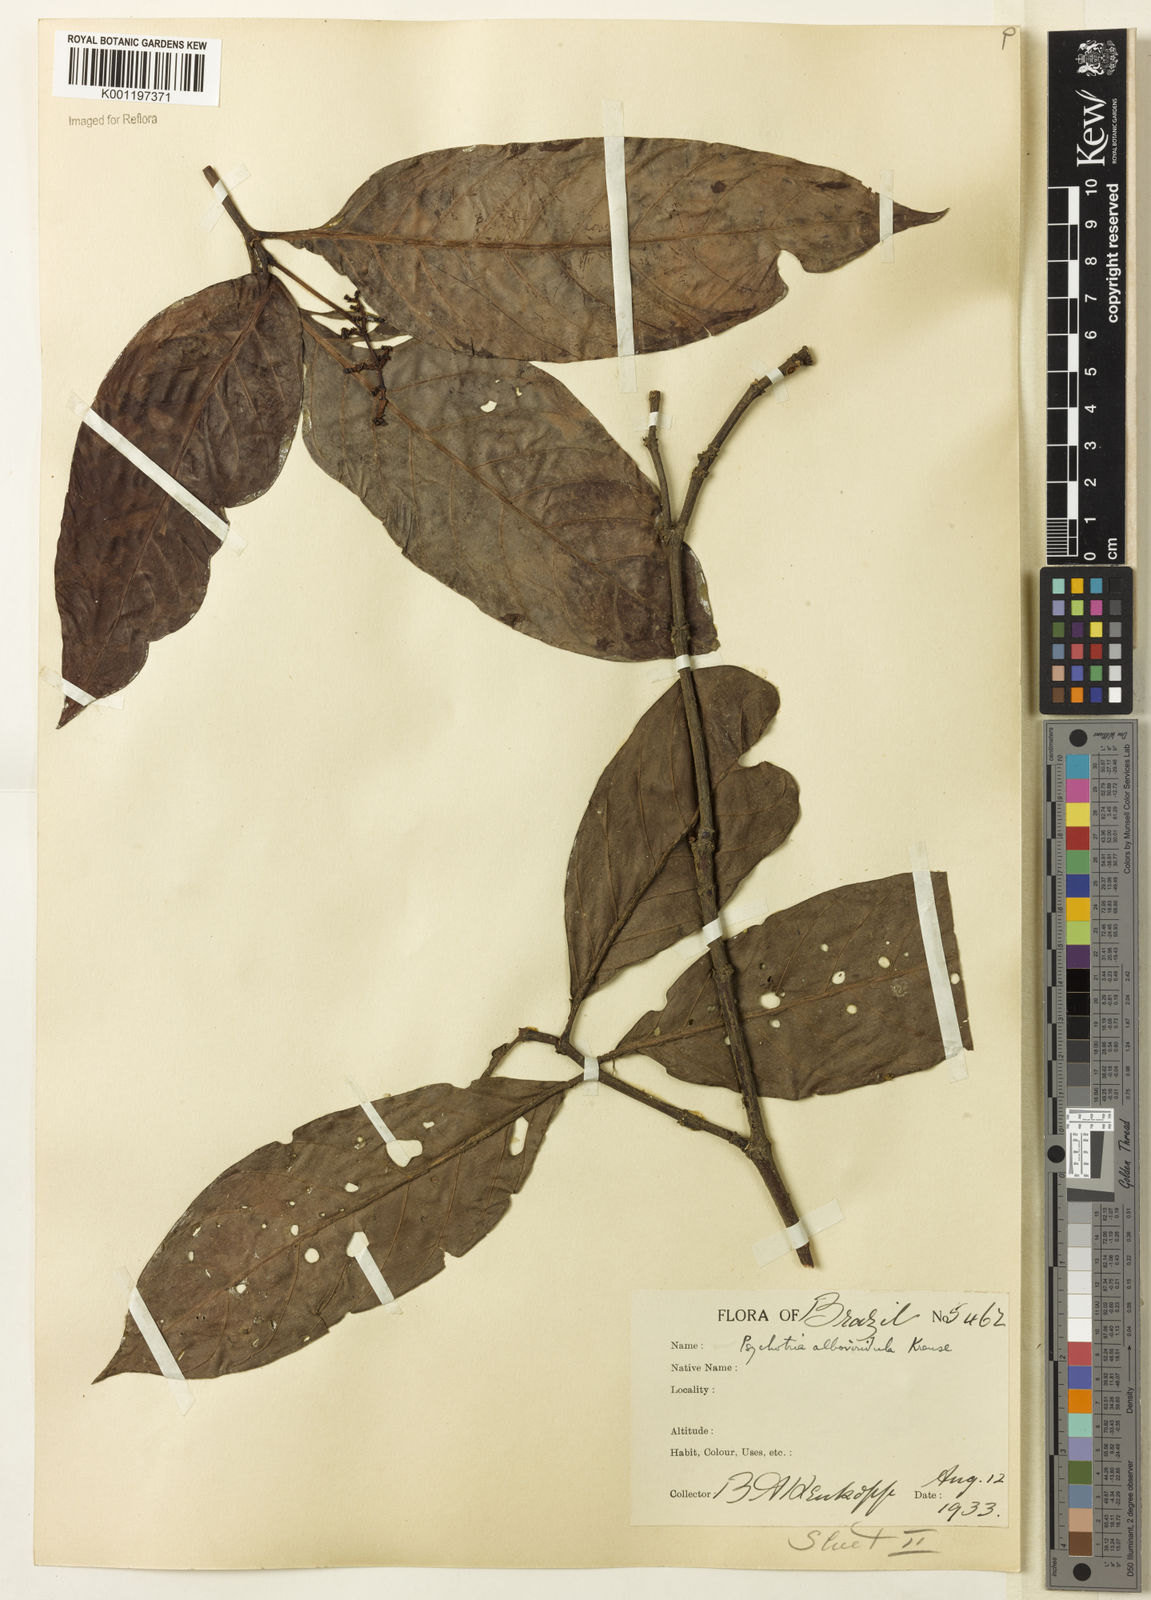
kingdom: Plantae
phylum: Tracheophyta
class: Magnoliopsida
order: Gentianales
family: Rubiaceae
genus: Psychotria
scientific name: Psychotria remota
